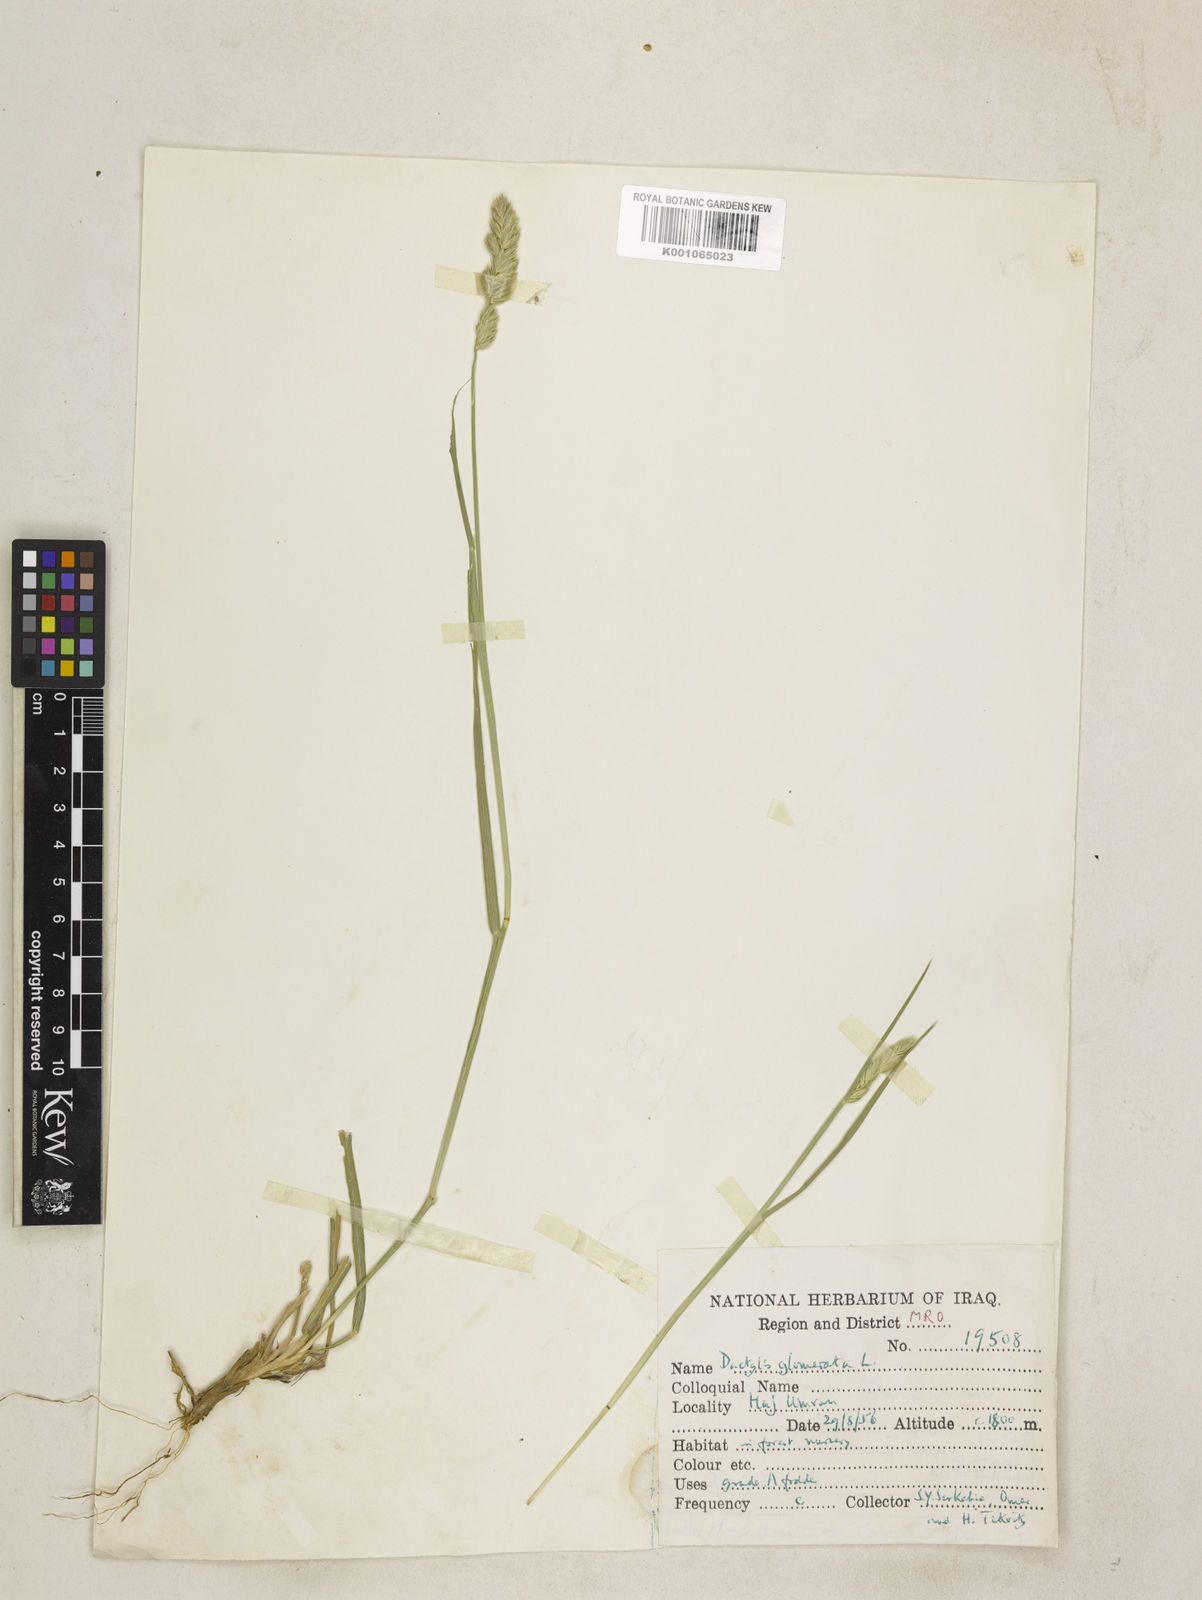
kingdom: Plantae
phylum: Tracheophyta
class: Liliopsida
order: Poales
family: Poaceae
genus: Dactylis
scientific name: Dactylis glomerata
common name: Orchardgrass
